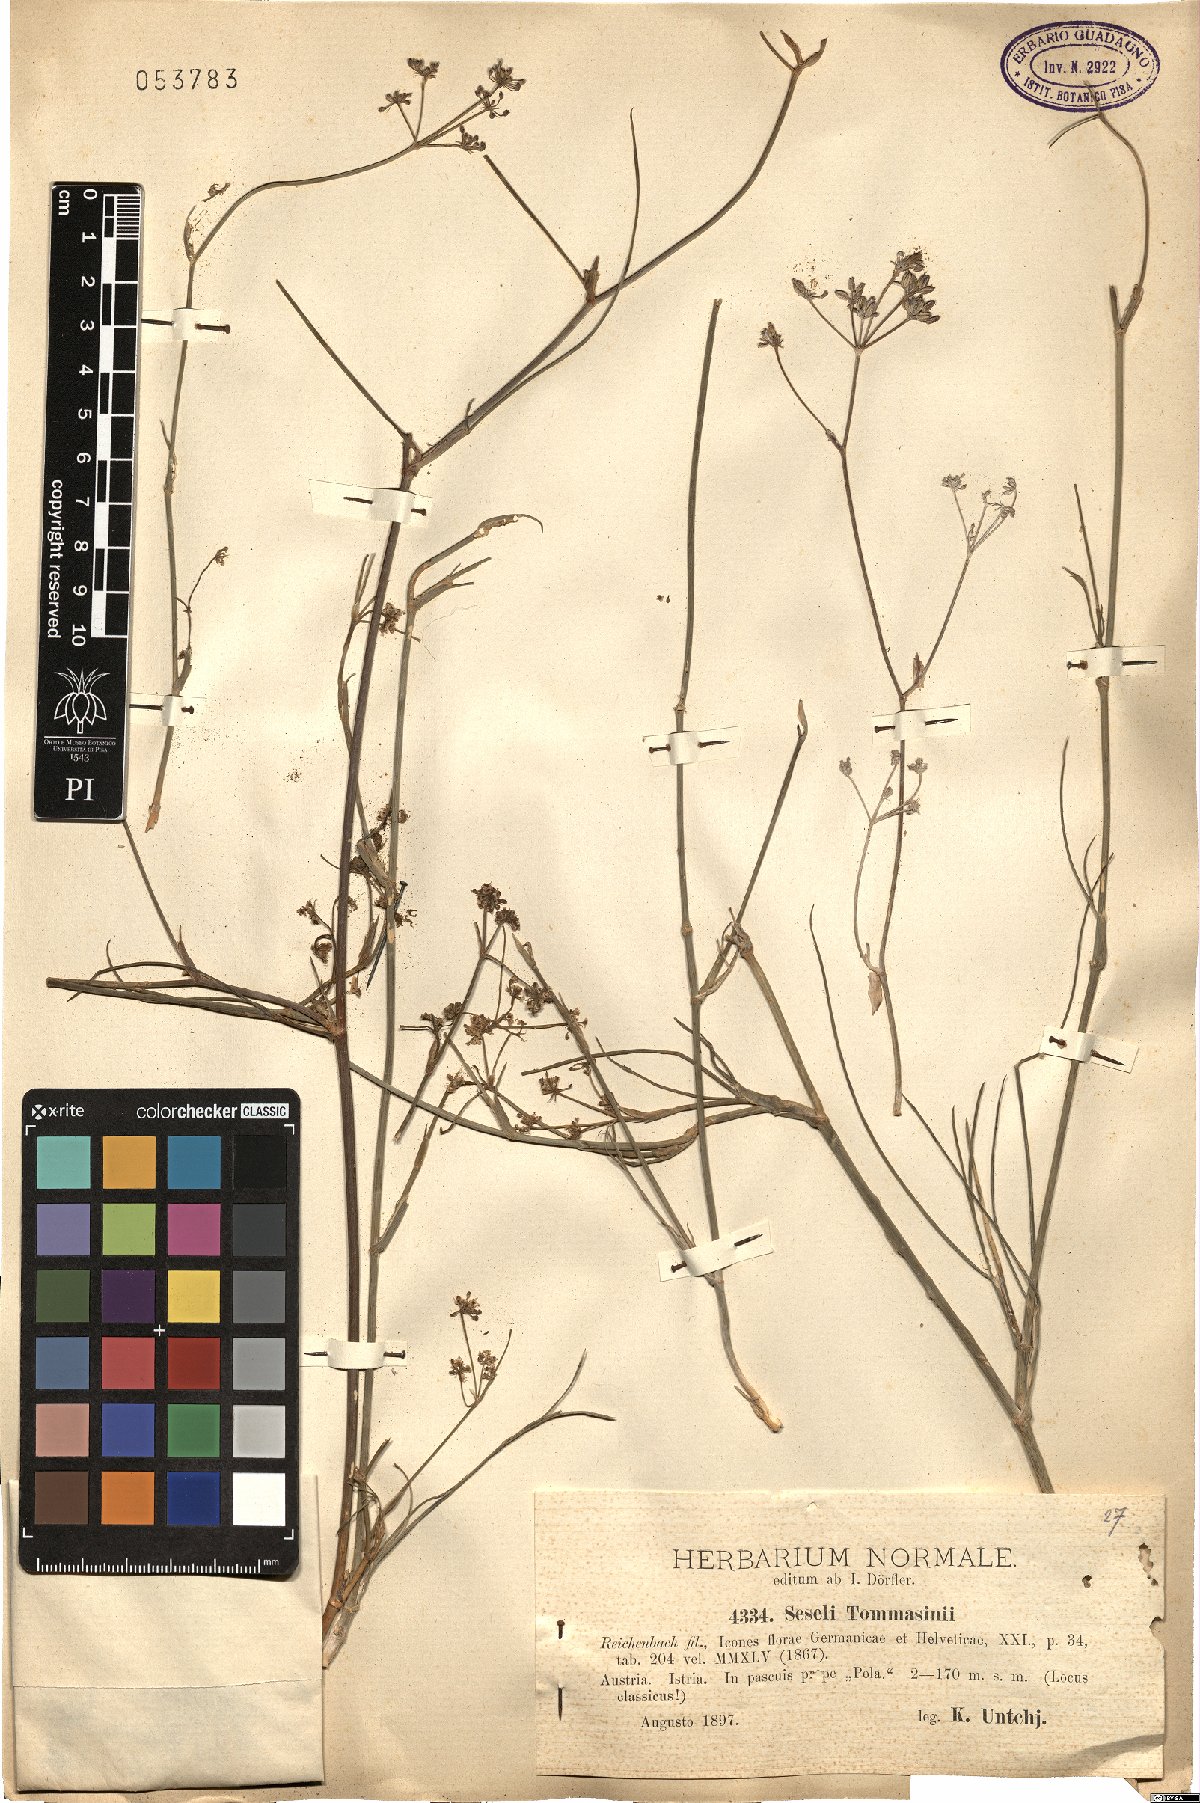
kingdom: Plantae
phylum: Tracheophyta
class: Magnoliopsida
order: Apiales
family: Apiaceae
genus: Seseli
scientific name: Seseli montanum
